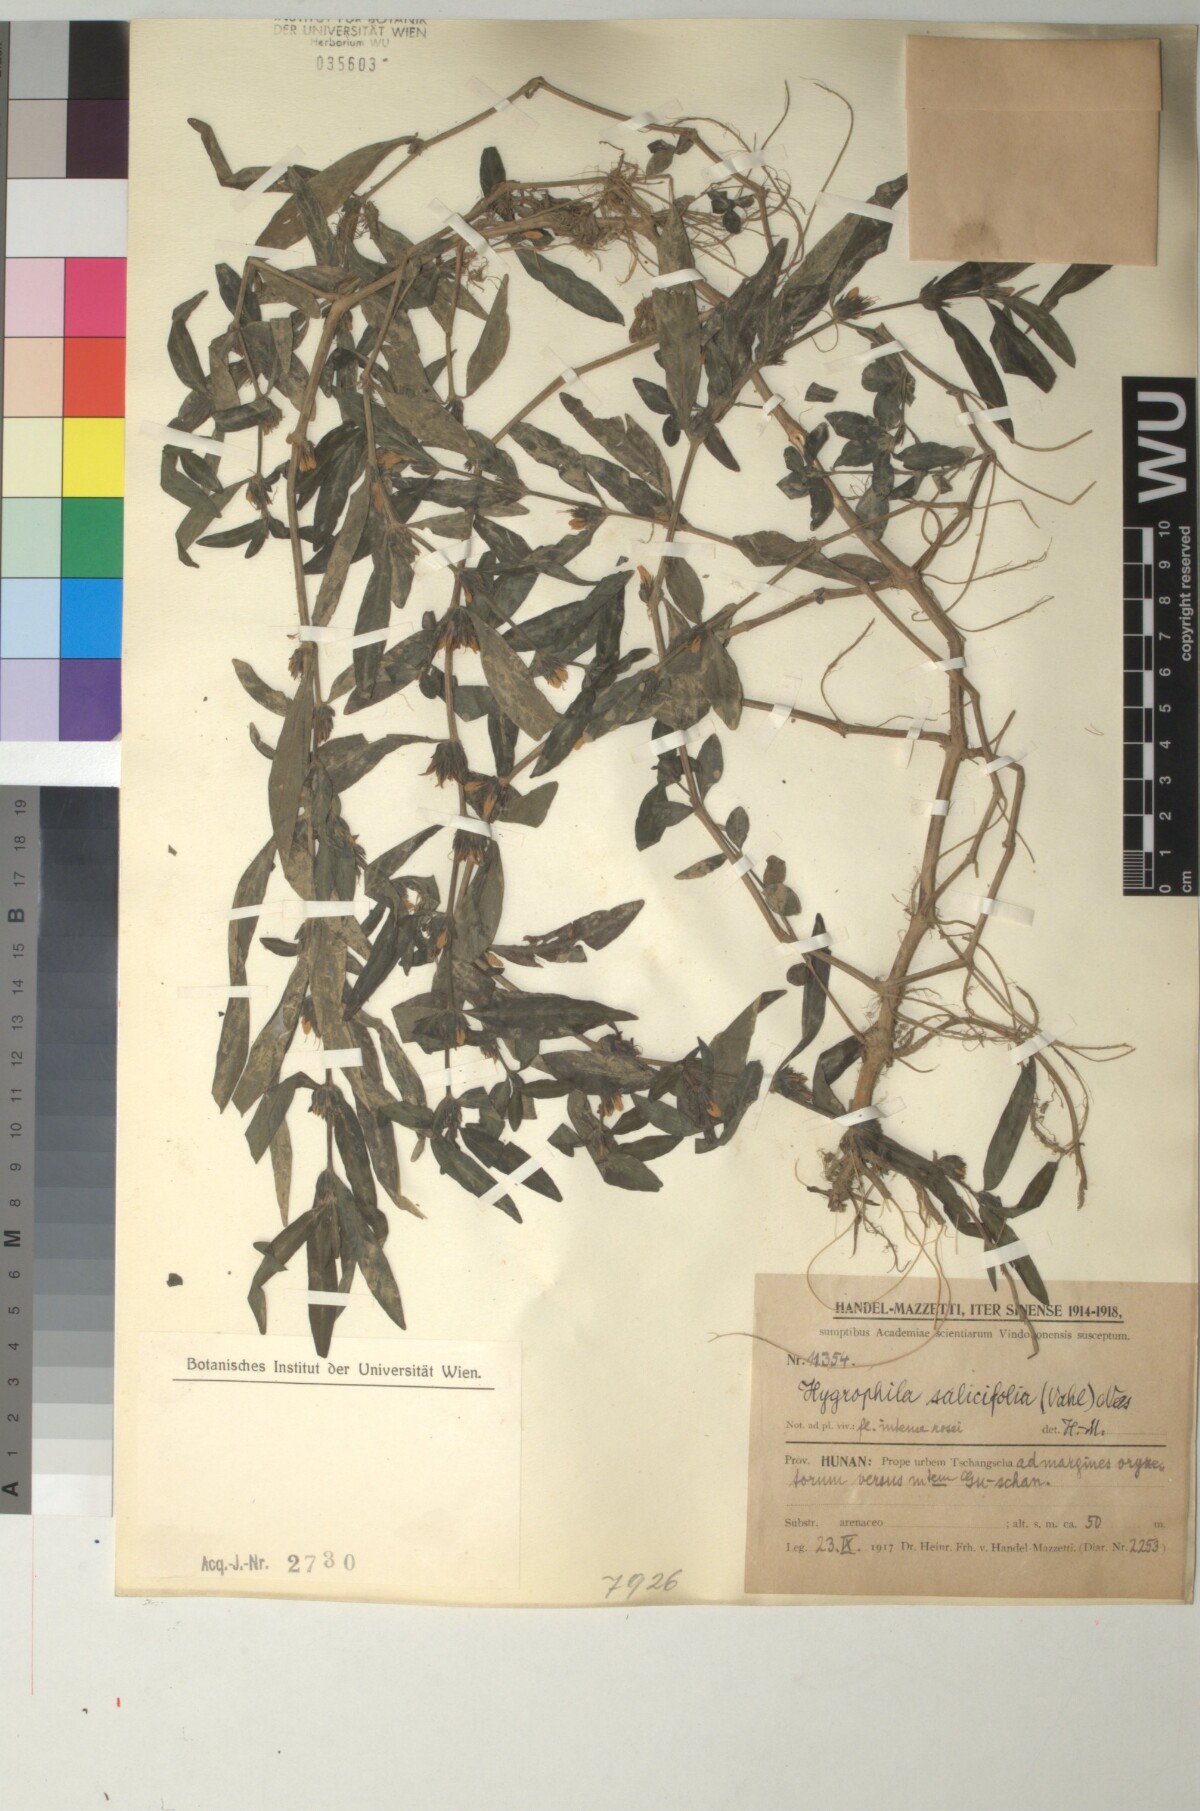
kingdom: Plantae
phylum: Tracheophyta
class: Magnoliopsida
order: Lamiales
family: Acanthaceae
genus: Hygrophila
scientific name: Hygrophila ringens
